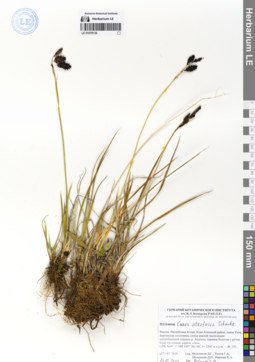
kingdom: Plantae
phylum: Tracheophyta
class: Liliopsida
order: Poales
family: Cyperaceae
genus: Carex
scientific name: Carex atrofusca
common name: Scorched alpine-sedge
